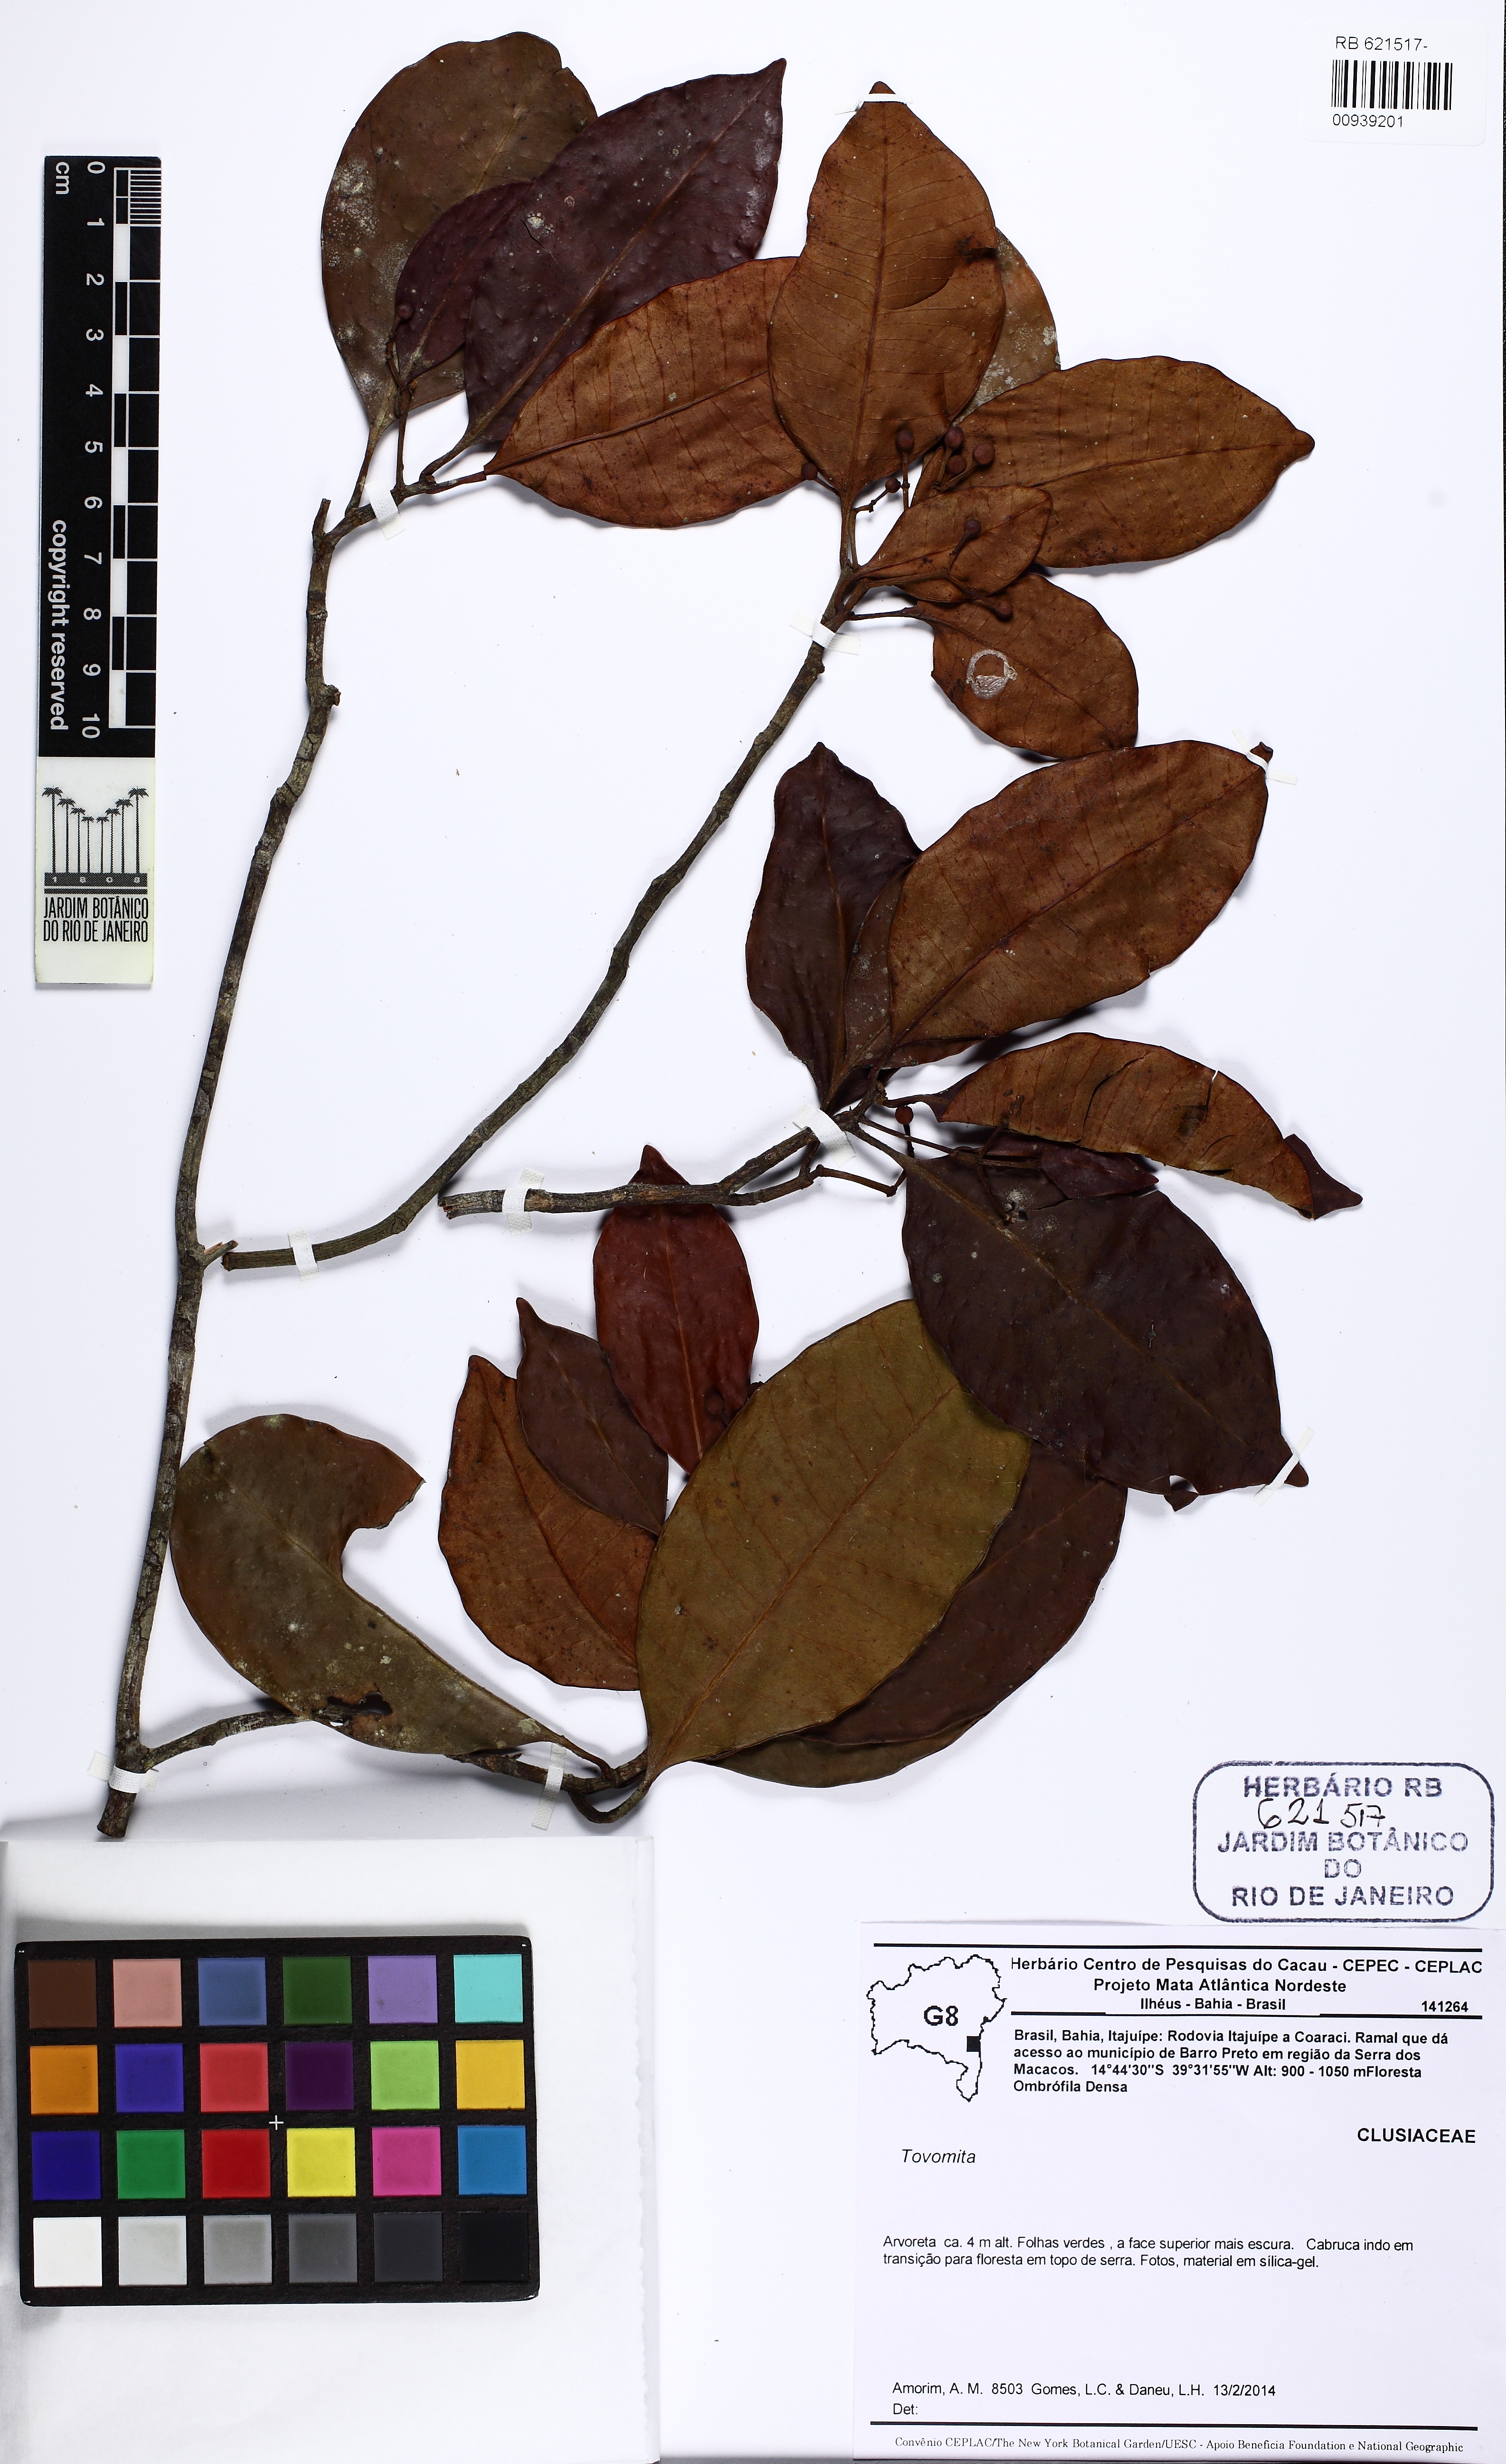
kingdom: Plantae
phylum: Tracheophyta
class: Magnoliopsida
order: Malpighiales
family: Clusiaceae
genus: Tovomita
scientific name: Tovomita
